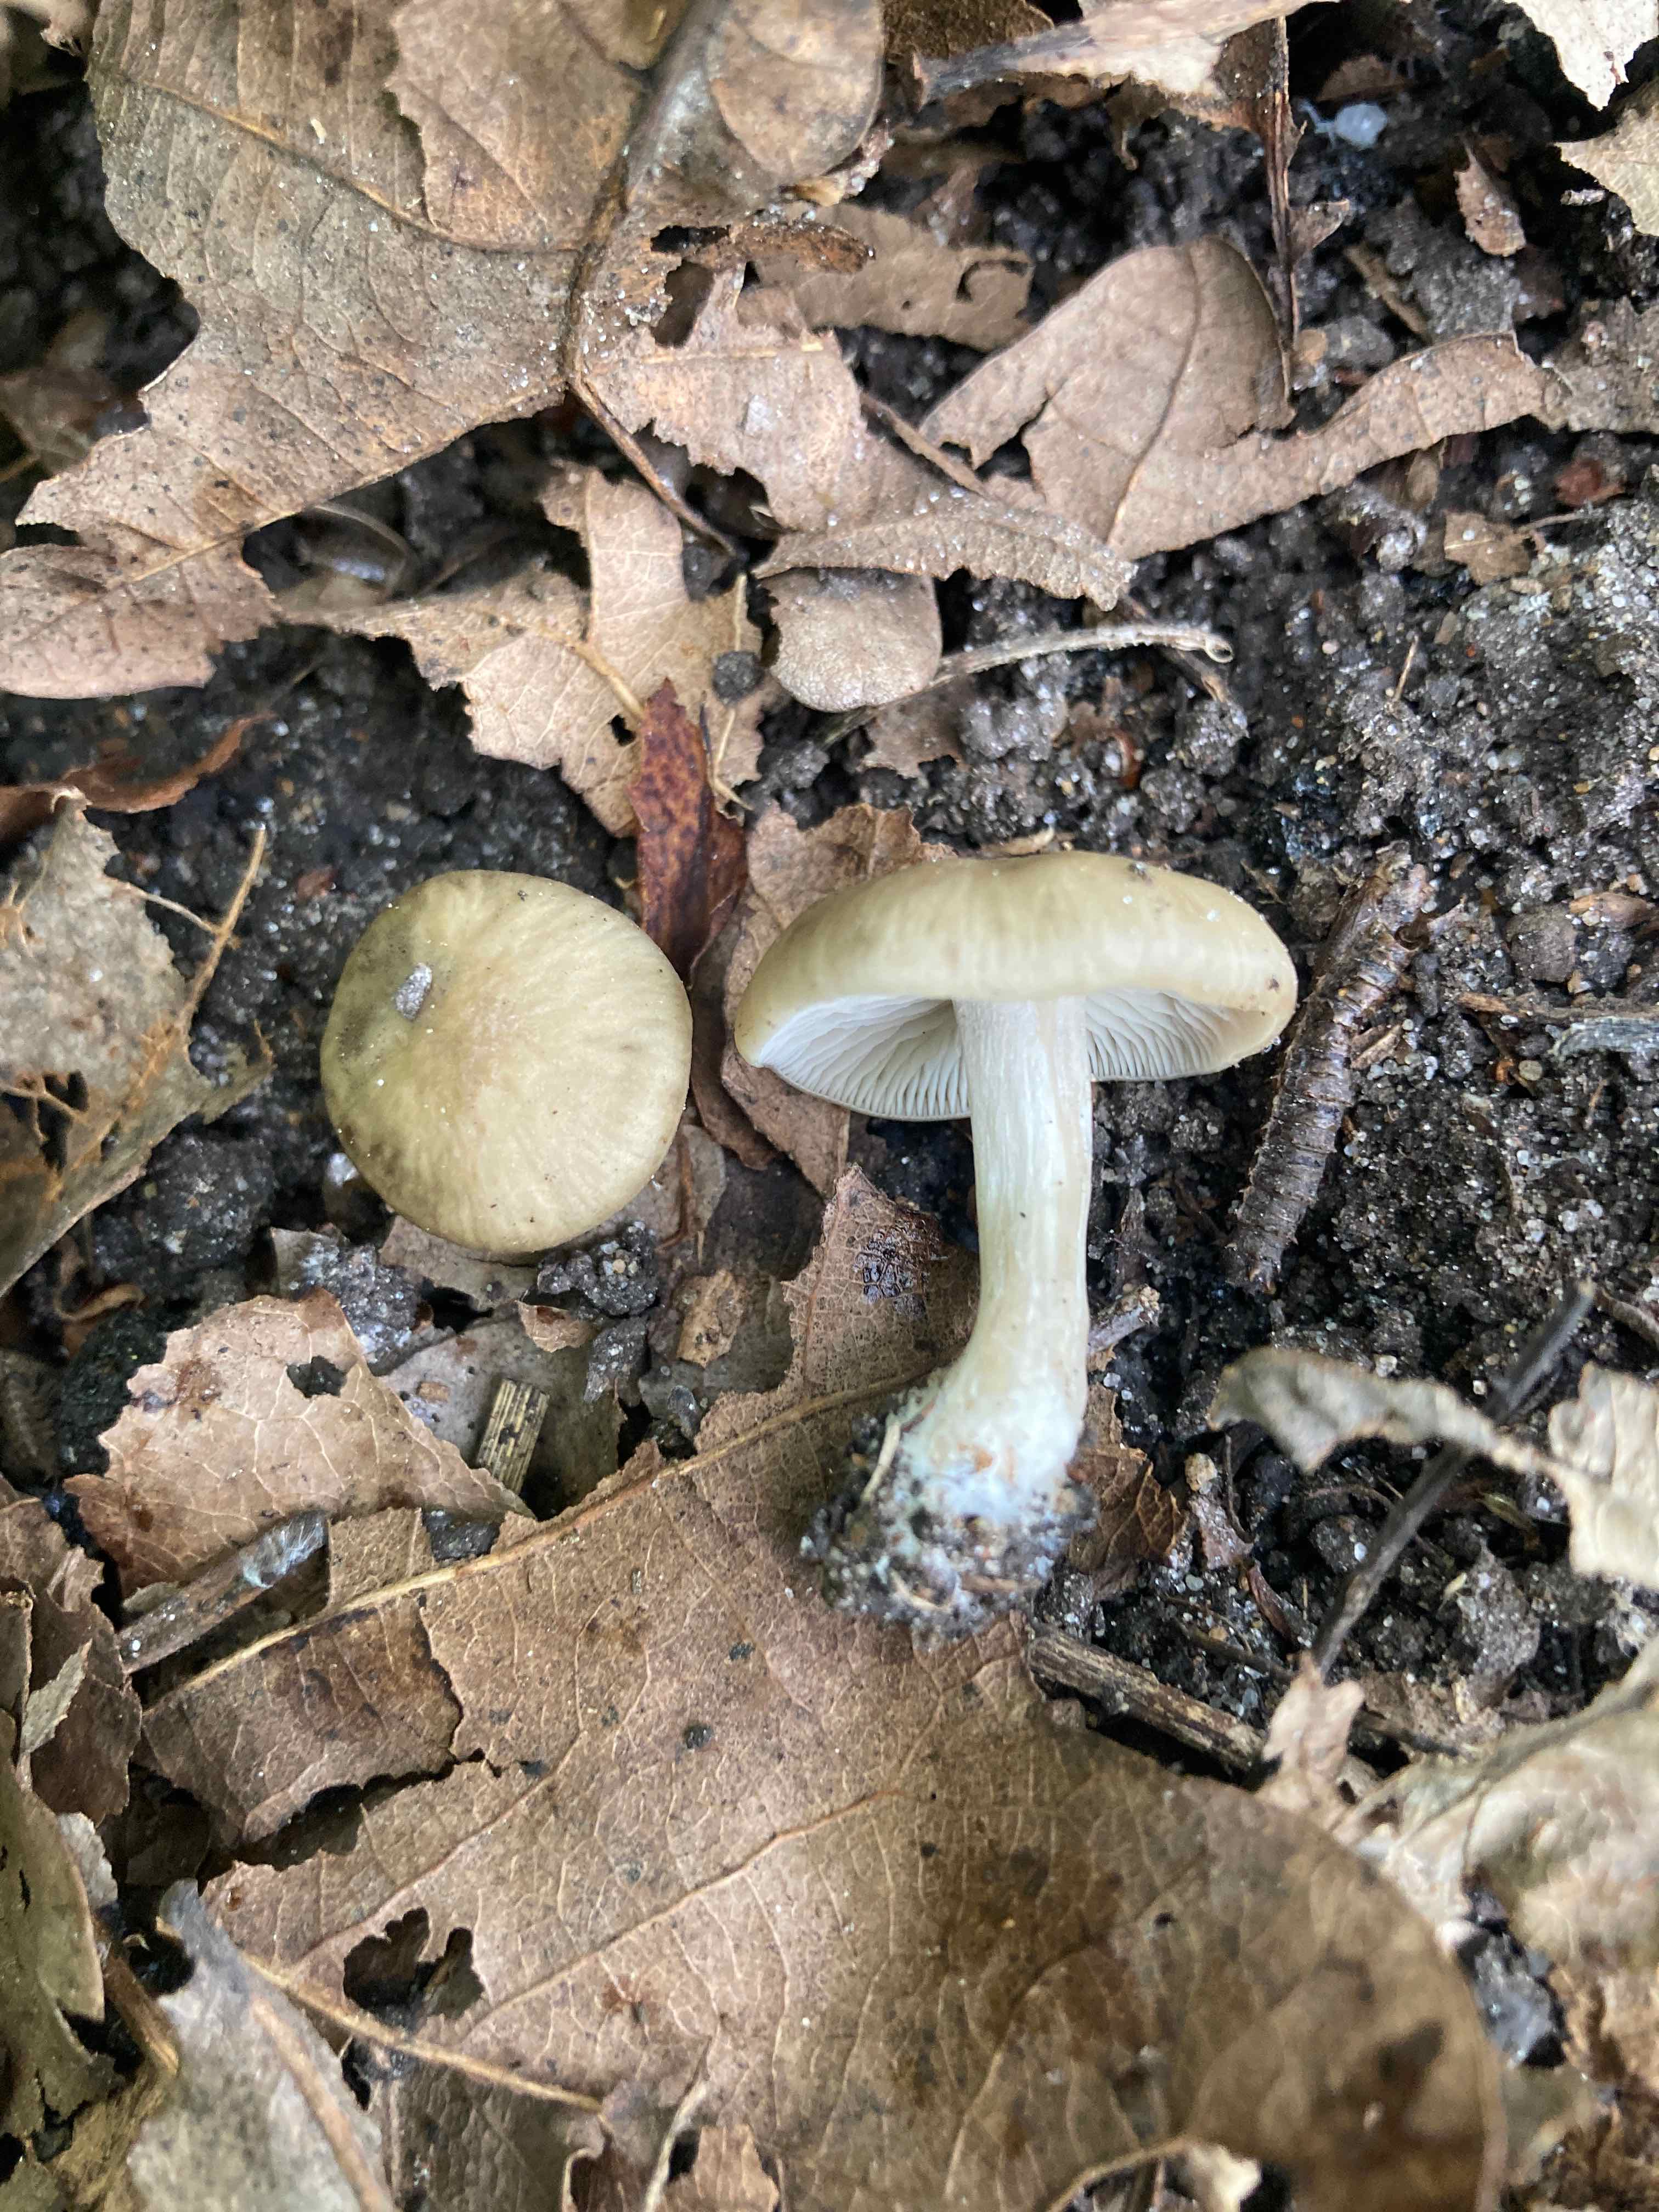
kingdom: Fungi
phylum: Basidiomycota
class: Agaricomycetes
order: Agaricales
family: Entolomataceae
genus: Entoloma
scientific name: Entoloma sordidulum
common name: smudsig rødblad
